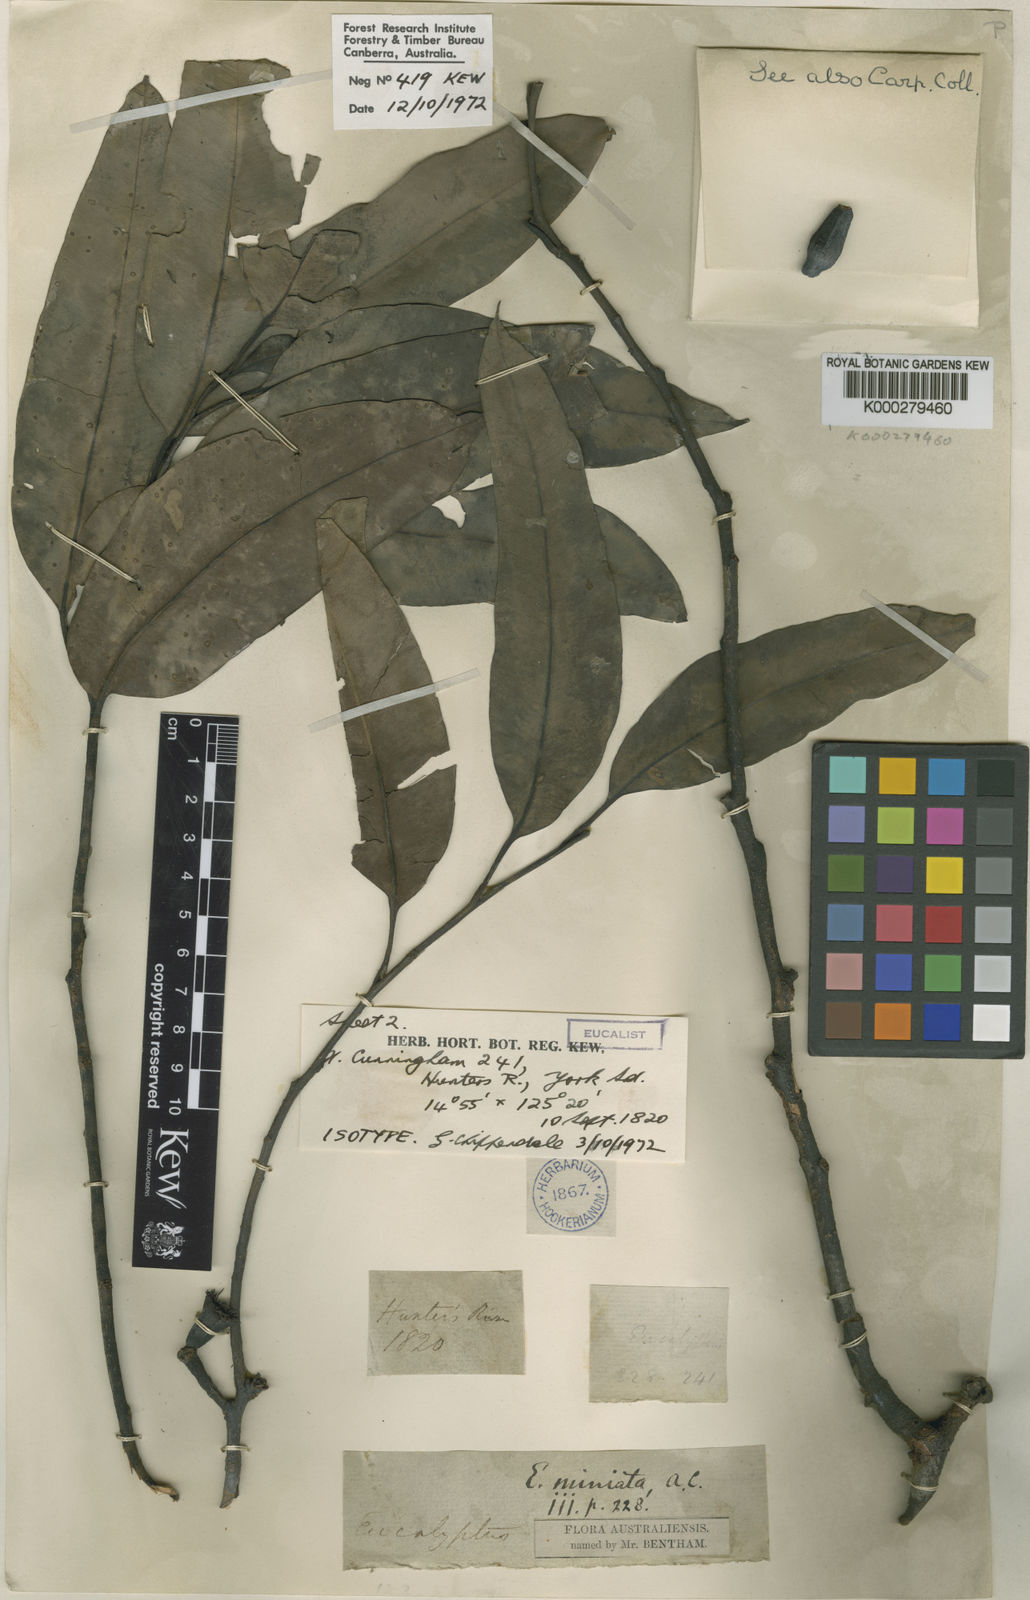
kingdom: Plantae
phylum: Tracheophyta
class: Magnoliopsida
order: Myrtales
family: Myrtaceae
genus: Eucalyptus
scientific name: Eucalyptus miniata
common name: Darwin-woollybutt
